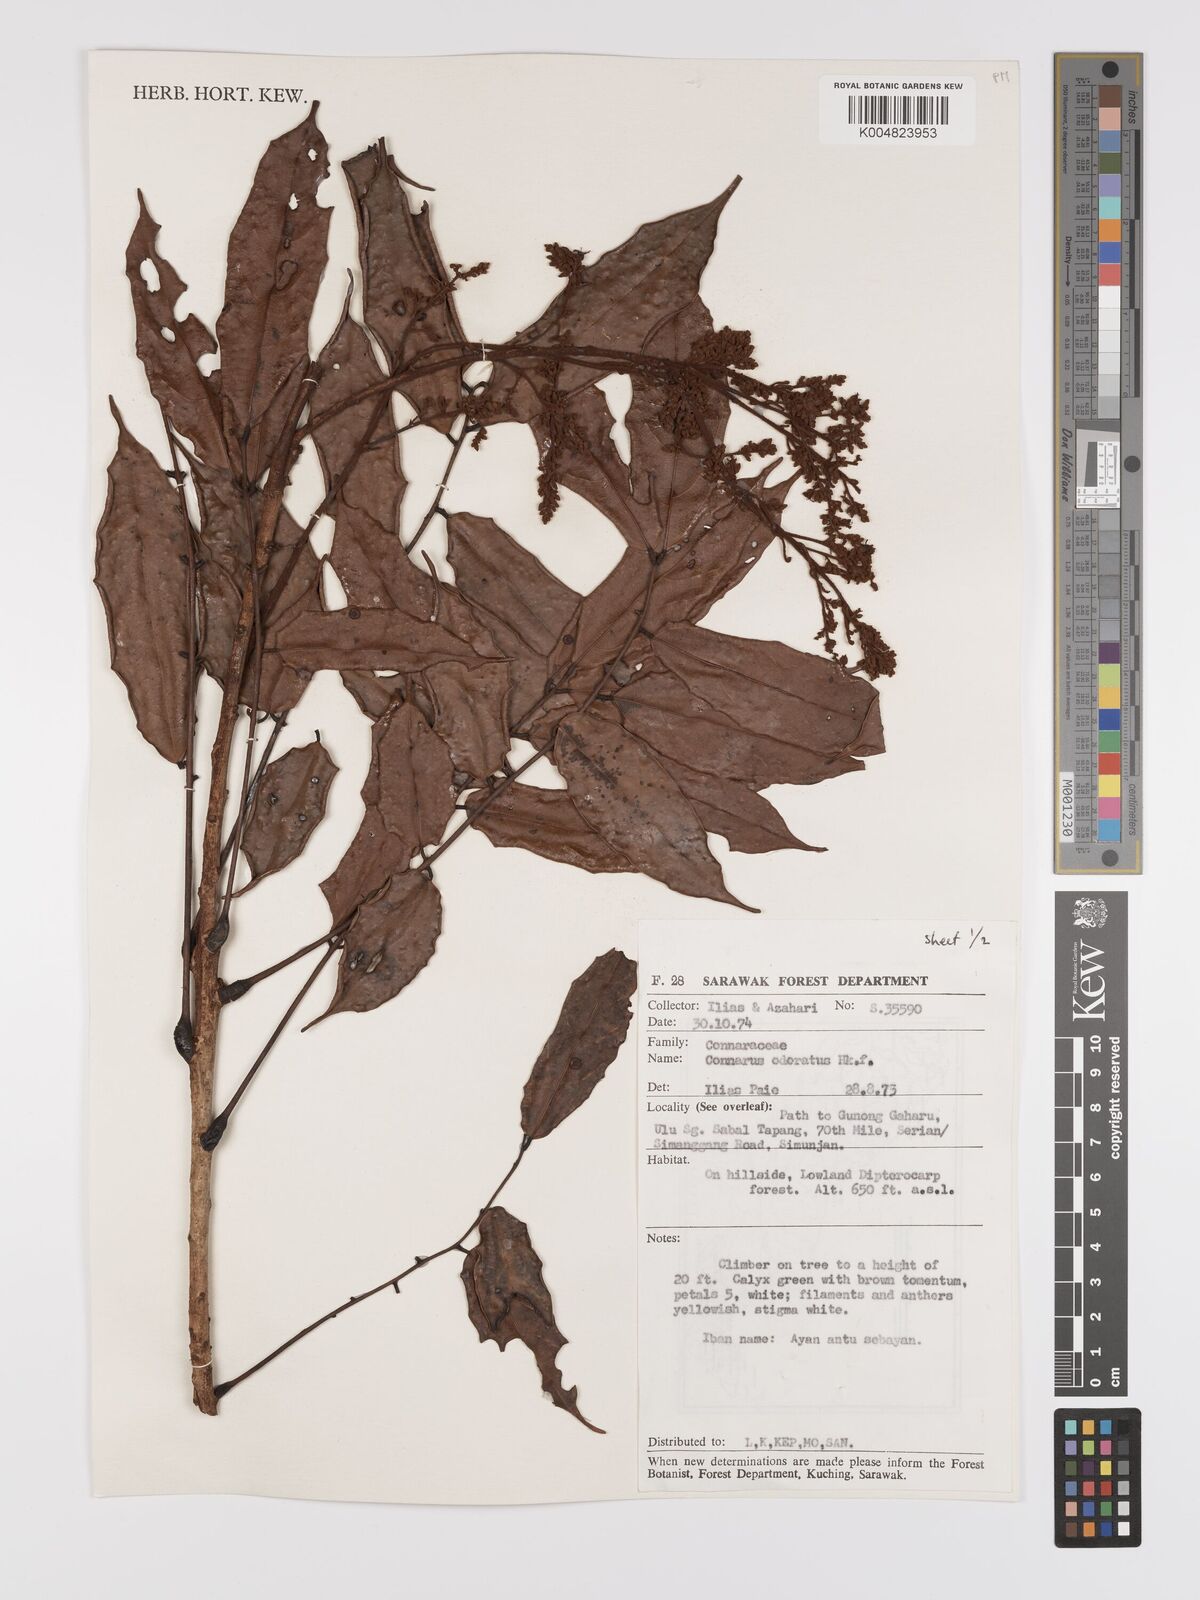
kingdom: Plantae
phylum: Tracheophyta
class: Magnoliopsida
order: Oxalidales
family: Connaraceae
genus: Connarus
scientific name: Connarus odoratus
